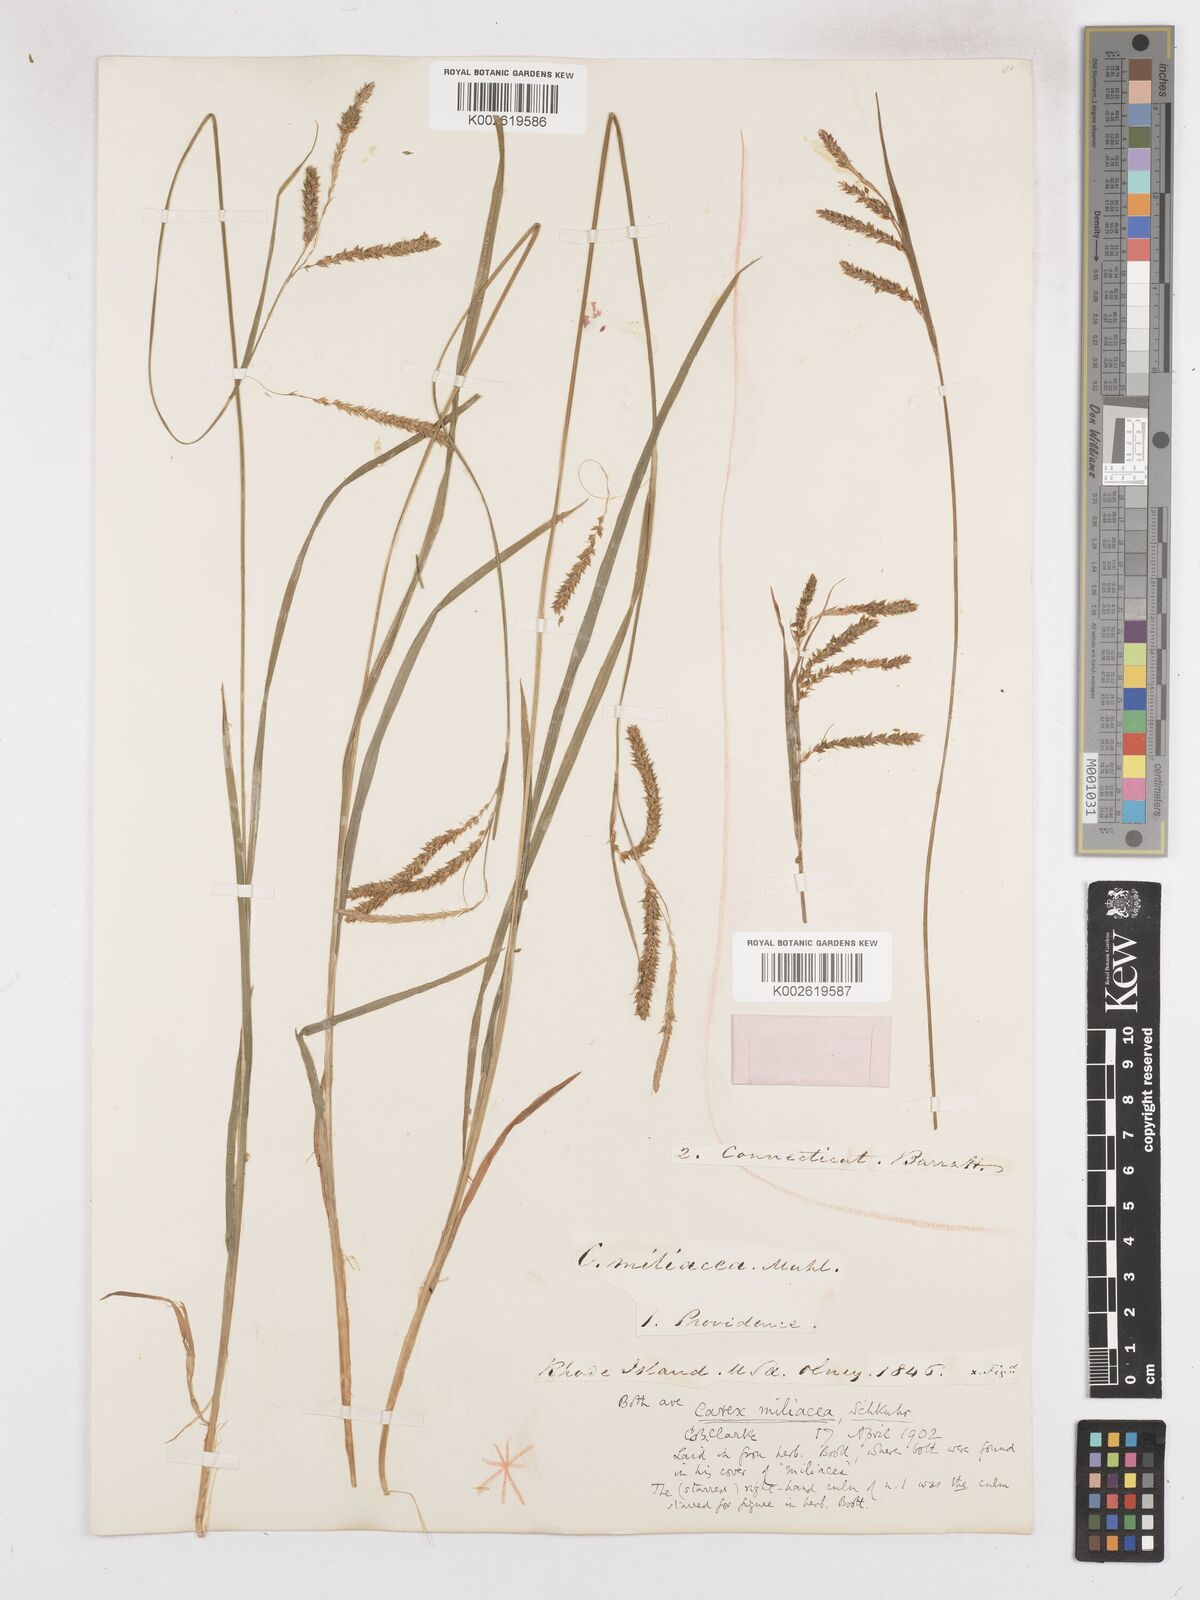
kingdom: Plantae
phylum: Tracheophyta
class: Liliopsida
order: Poales
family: Cyperaceae
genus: Carex
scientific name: Carex prasina
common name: Drooping sedge
